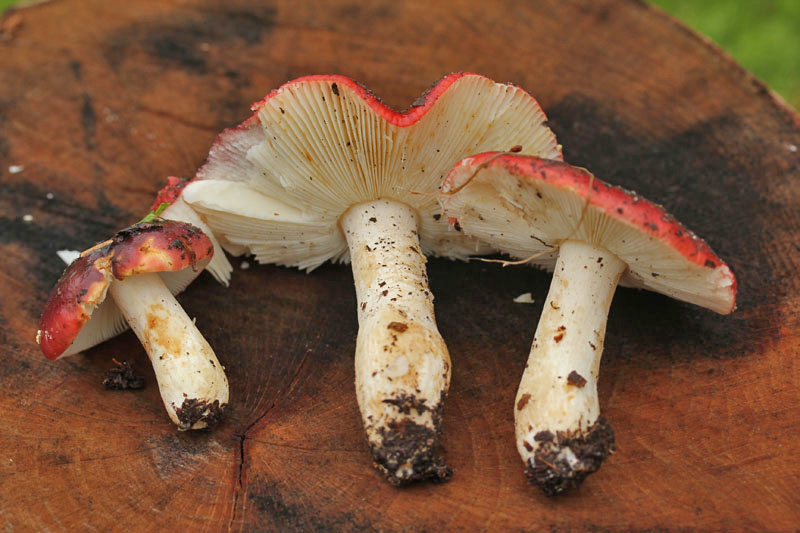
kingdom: Fungi
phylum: Basidiomycota
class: Agaricomycetes
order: Russulales
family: Russulaceae
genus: Russula
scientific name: Russula melliolens
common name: honning-skørhat
